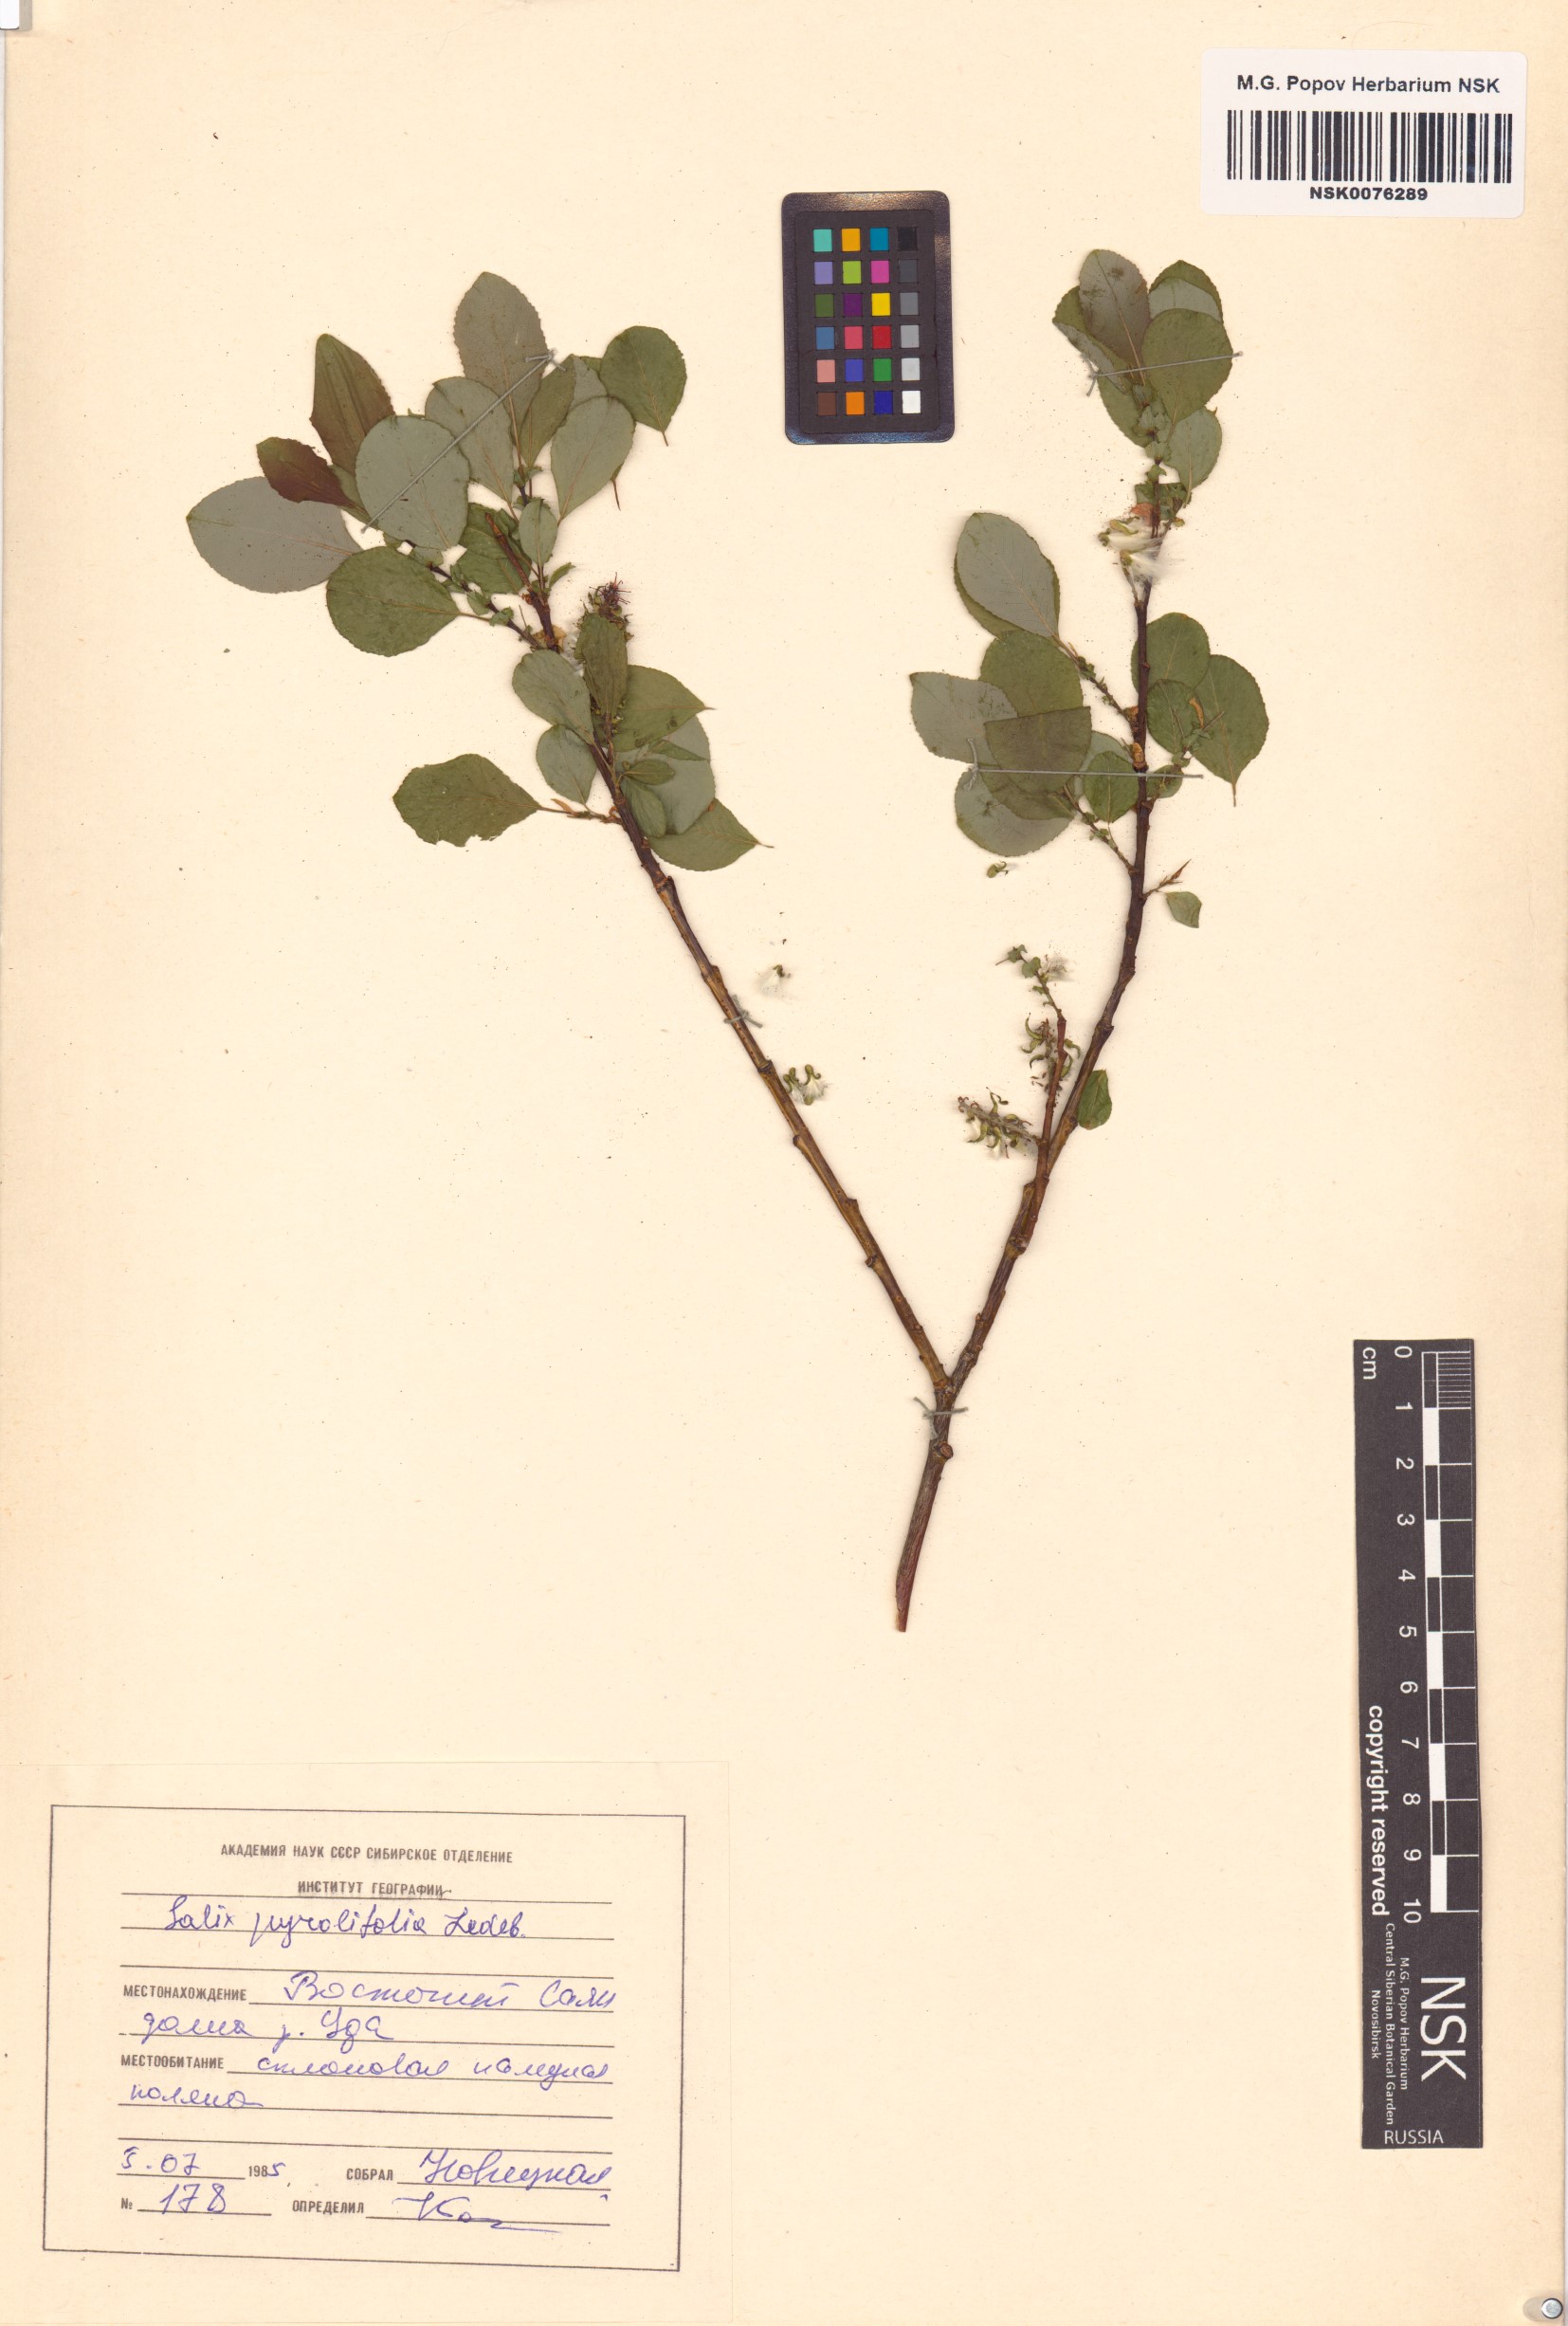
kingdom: Plantae
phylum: Tracheophyta
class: Magnoliopsida
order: Malpighiales
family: Salicaceae
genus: Salix
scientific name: Salix pyrolifolia
